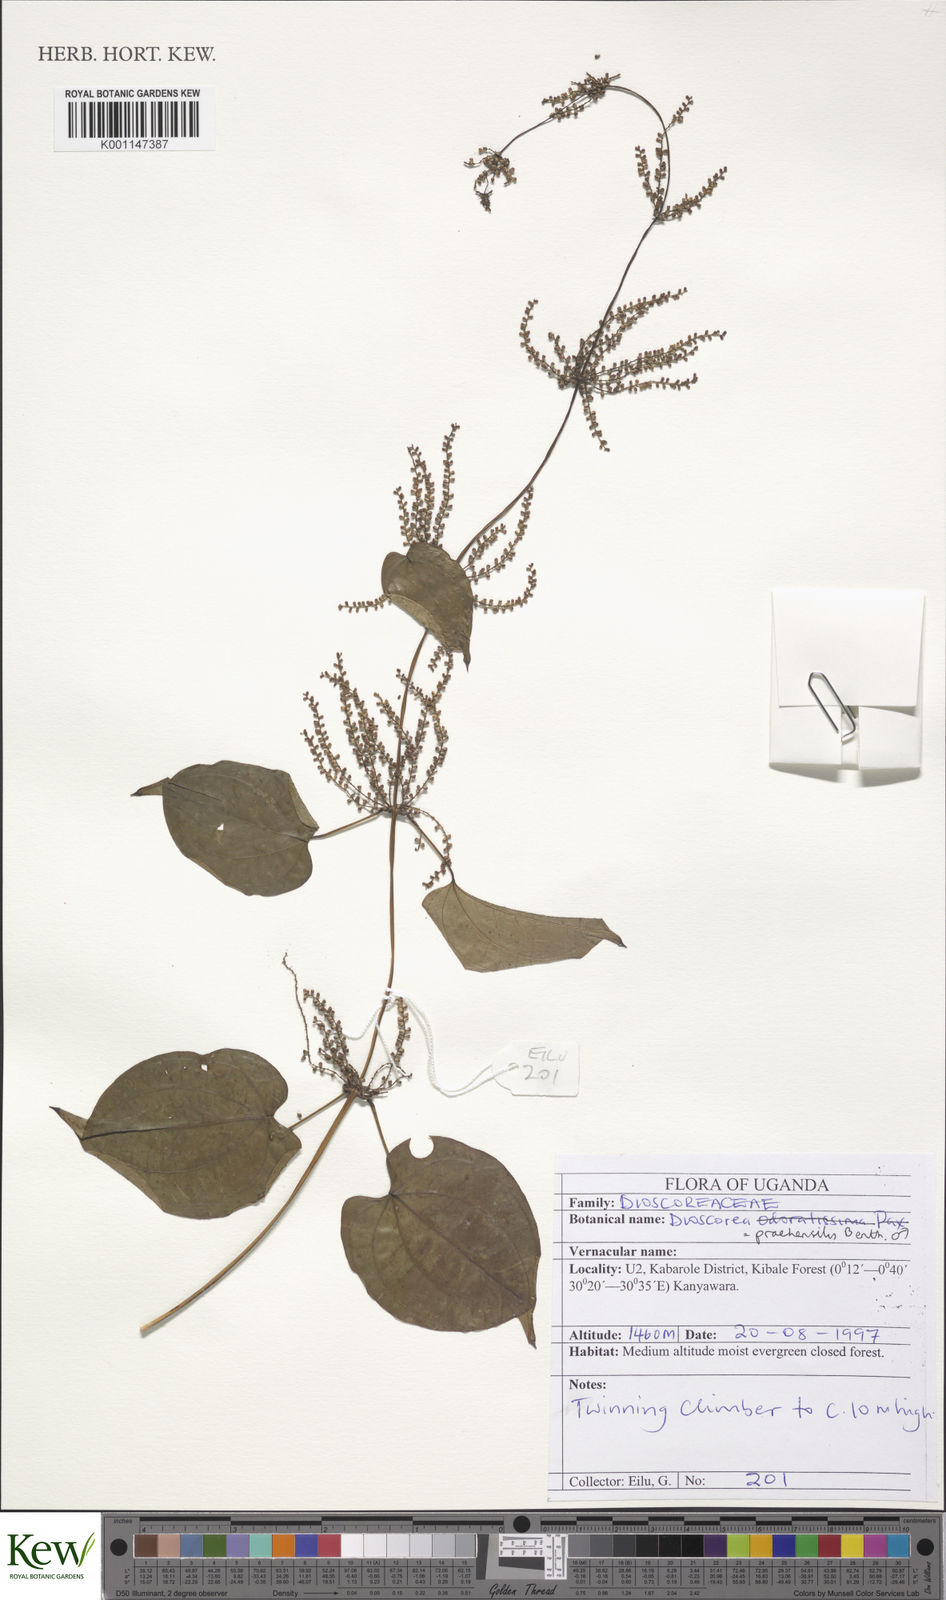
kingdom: Plantae
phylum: Tracheophyta
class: Liliopsida
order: Dioscoreales
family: Dioscoreaceae
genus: Dioscorea
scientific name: Dioscorea praehensilis
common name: Bush yam
